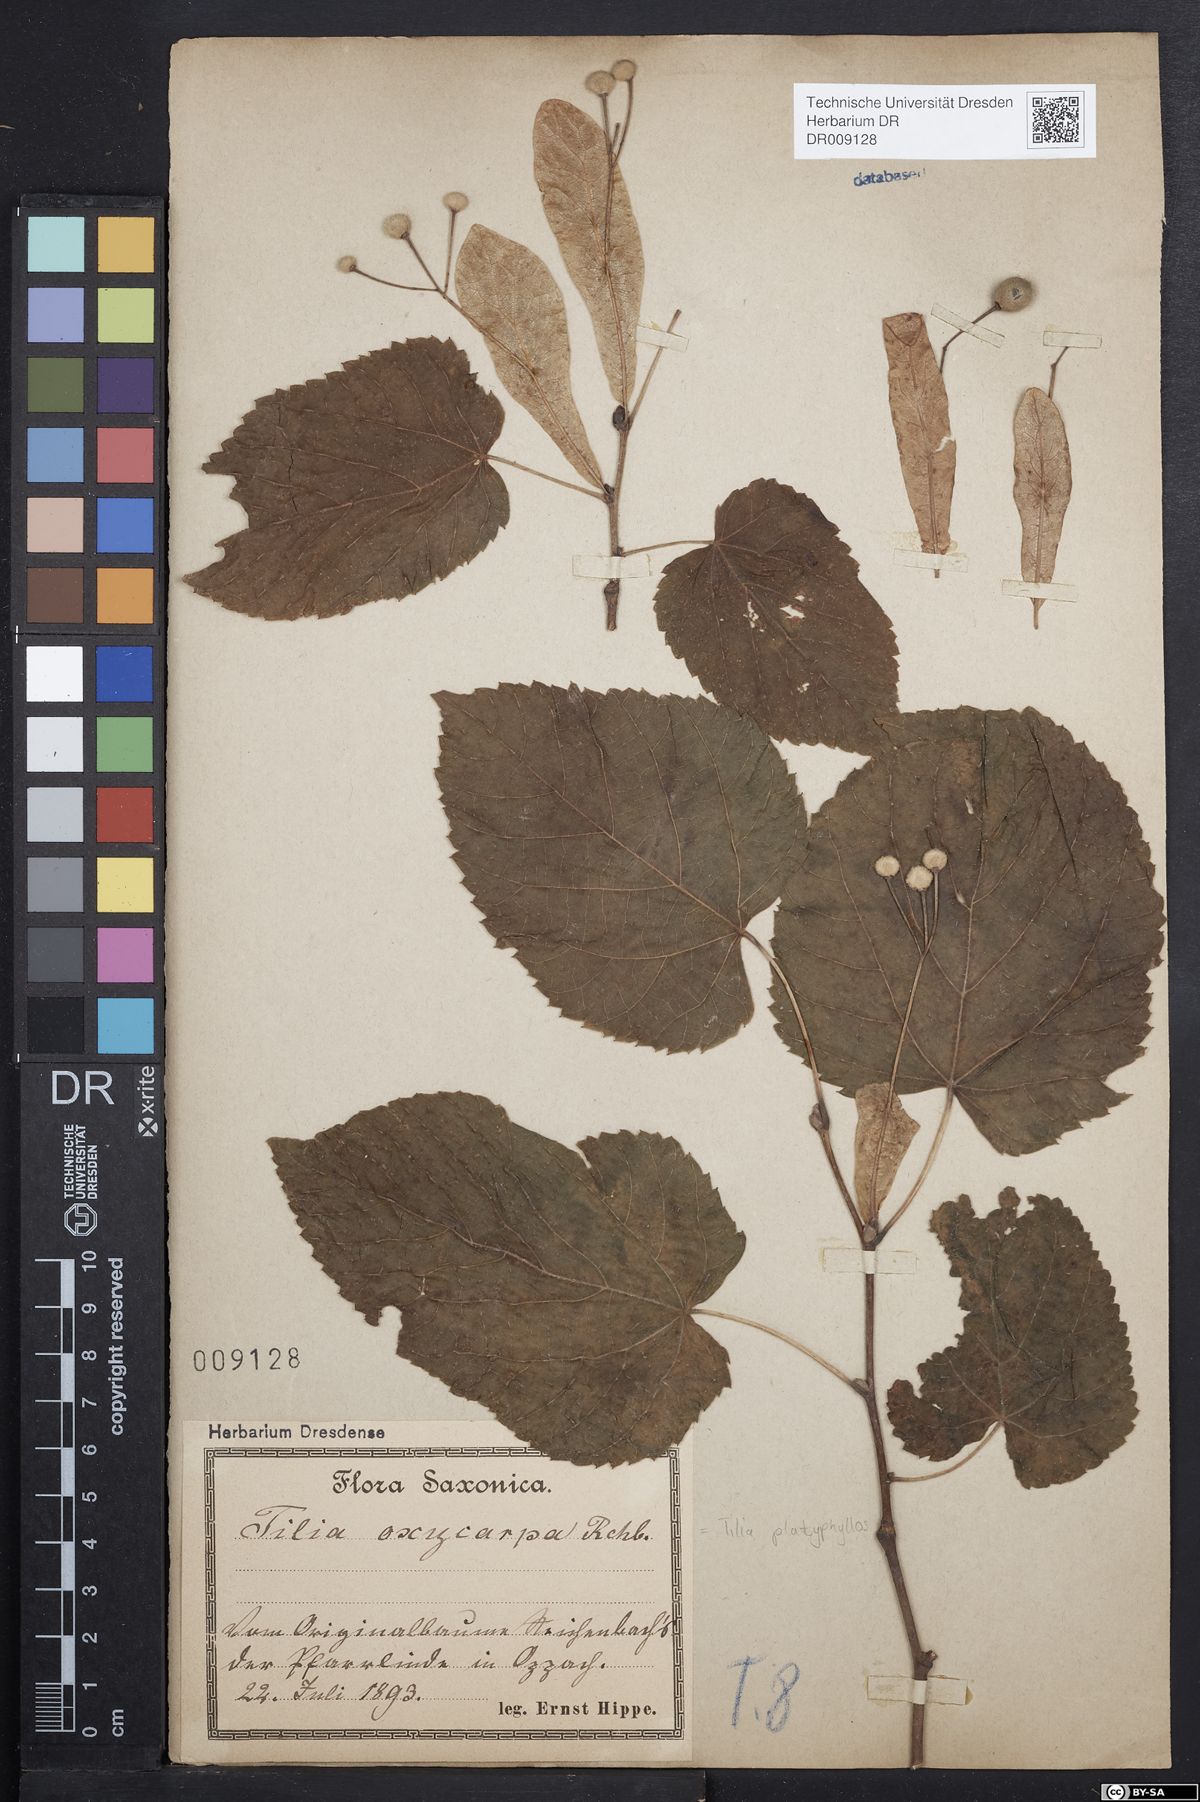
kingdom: Plantae
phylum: Tracheophyta
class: Magnoliopsida
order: Malvales
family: Malvaceae
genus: Tilia
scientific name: Tilia platyphyllos
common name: Large-leaved lime
